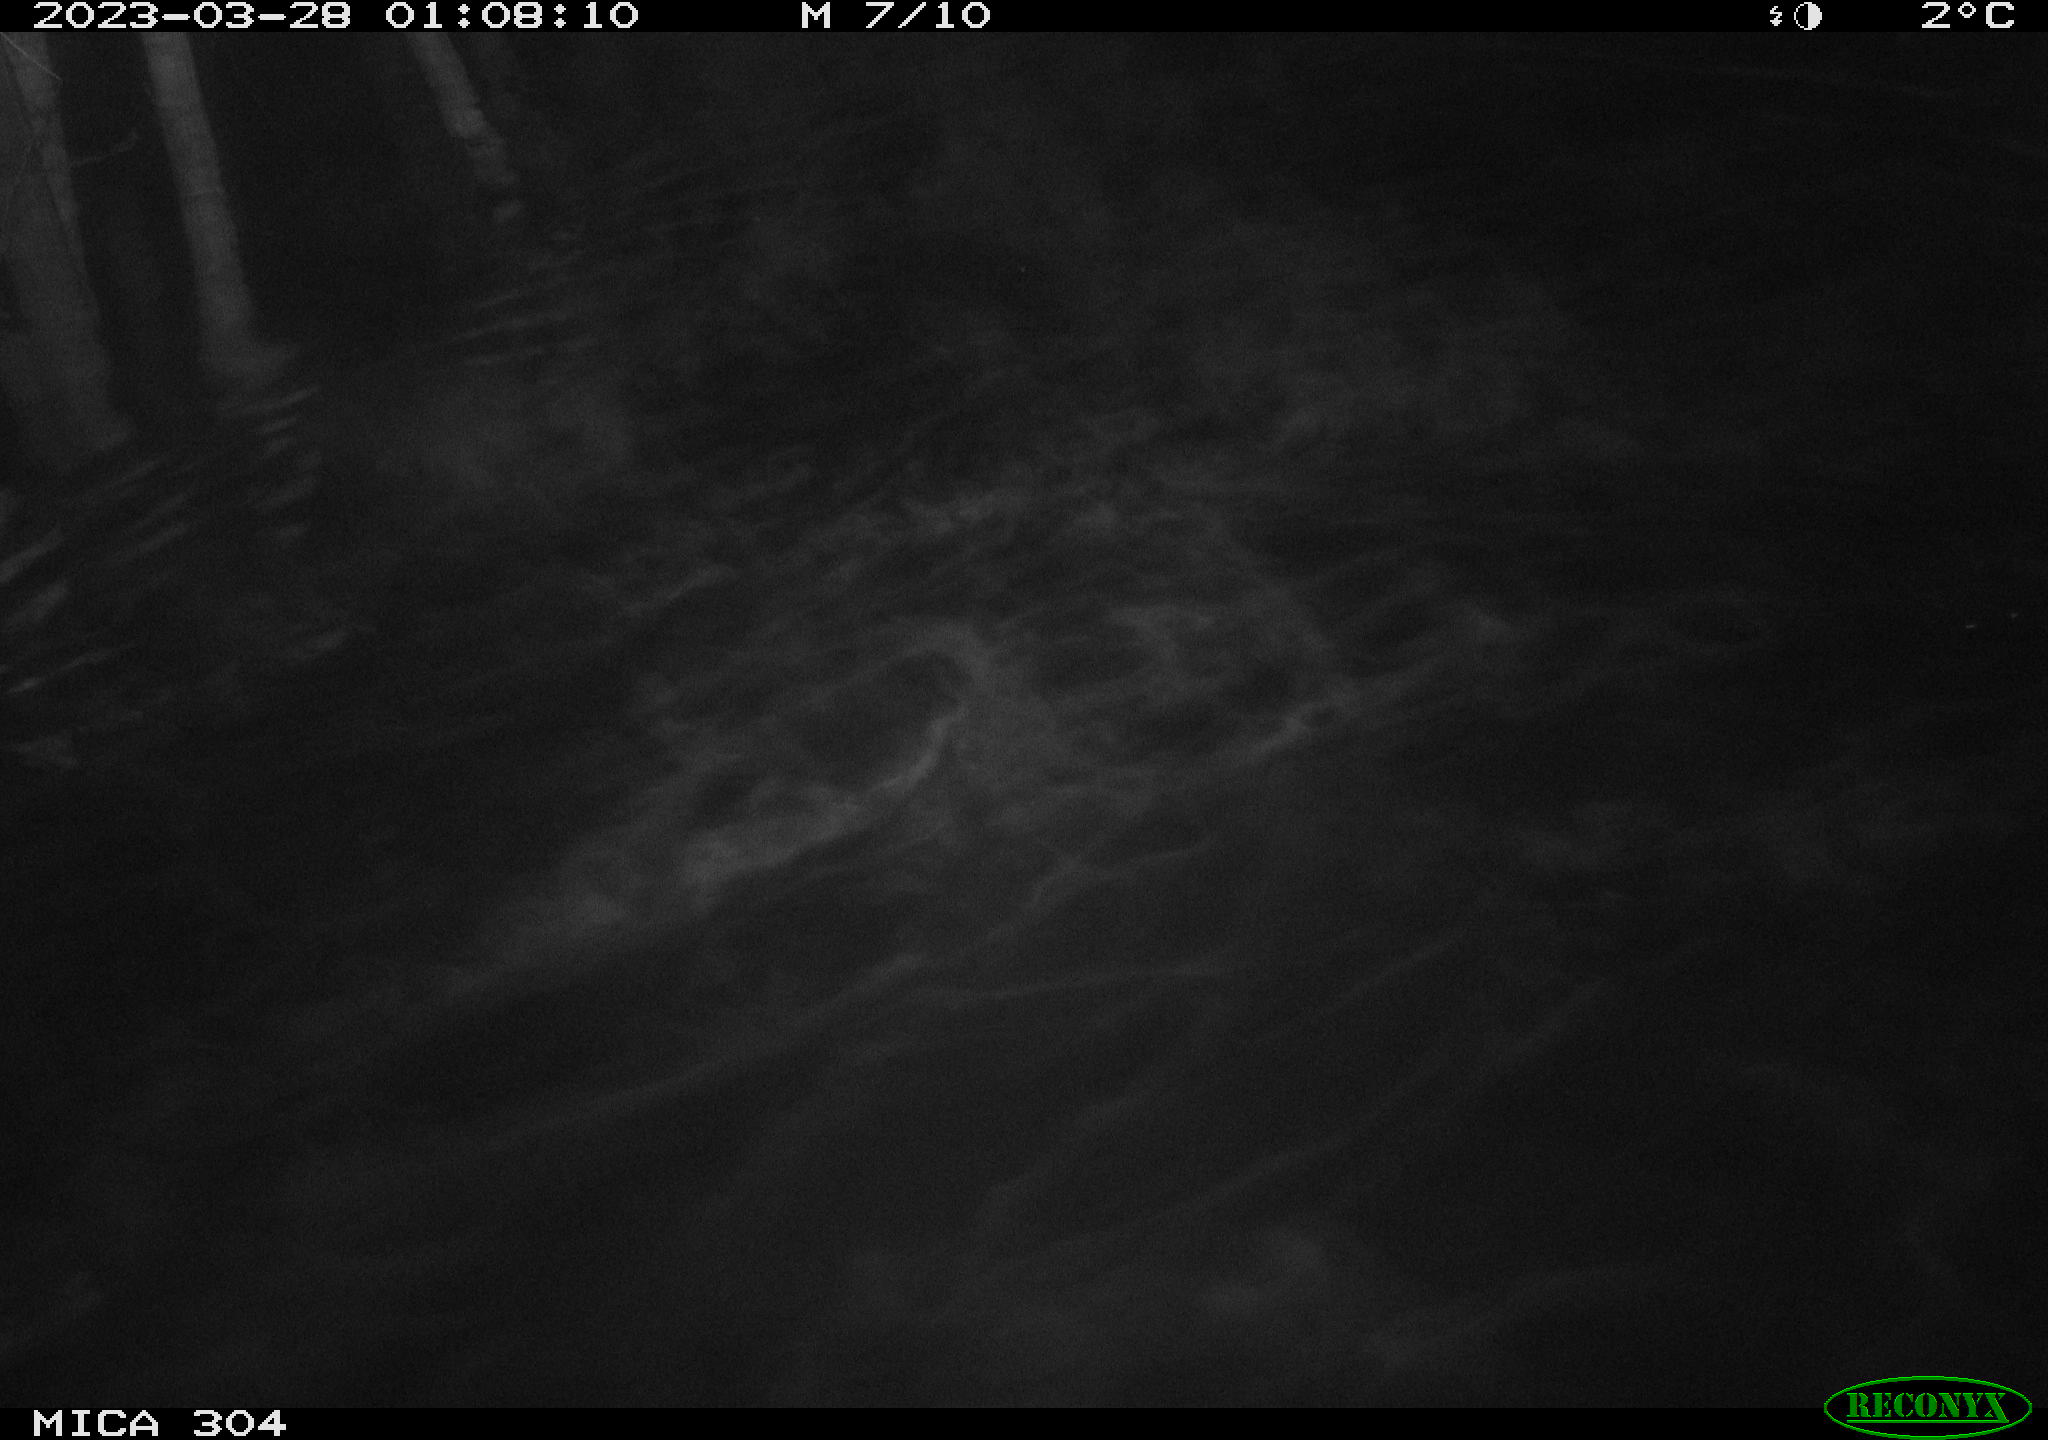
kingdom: Animalia
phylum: Chordata
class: Aves
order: Anseriformes
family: Anatidae
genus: Anas
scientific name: Anas
